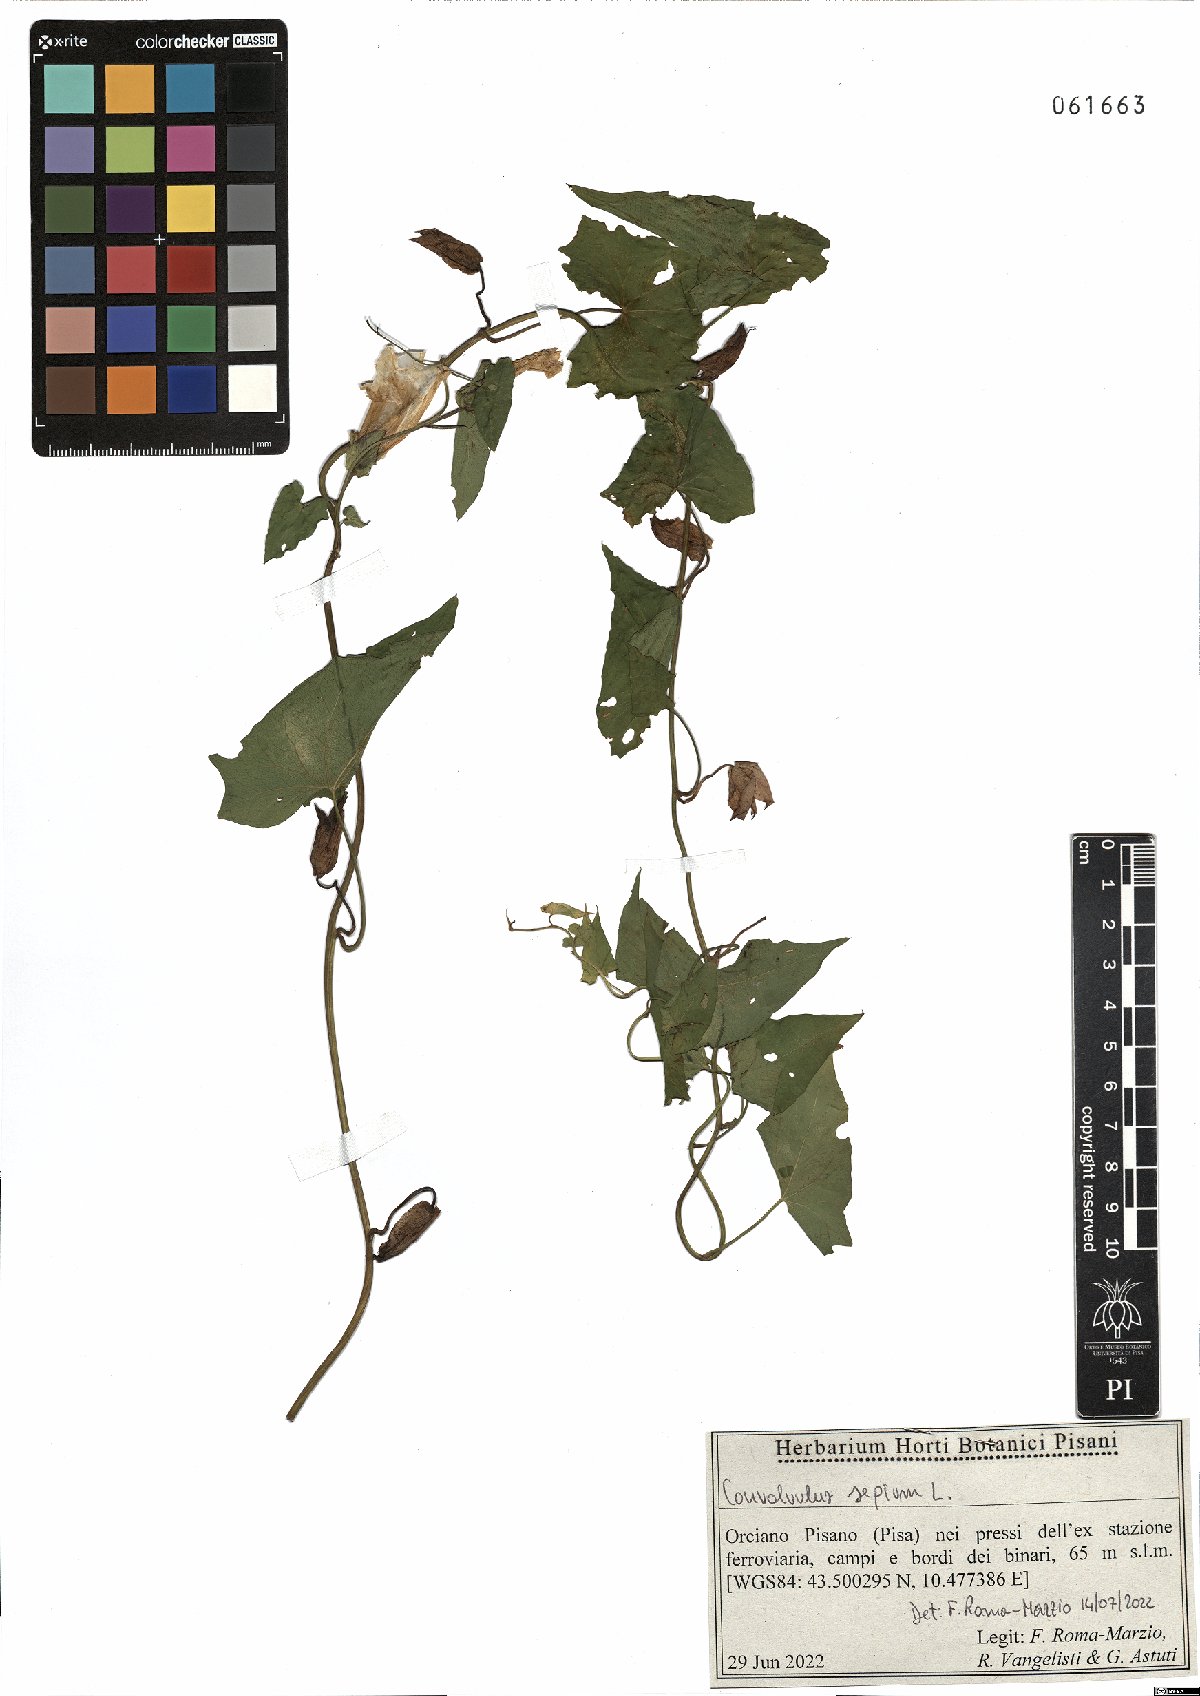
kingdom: Plantae
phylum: Tracheophyta
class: Magnoliopsida
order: Solanales
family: Convolvulaceae
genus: Calystegia
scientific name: Calystegia sepium
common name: Hedge bindweed
